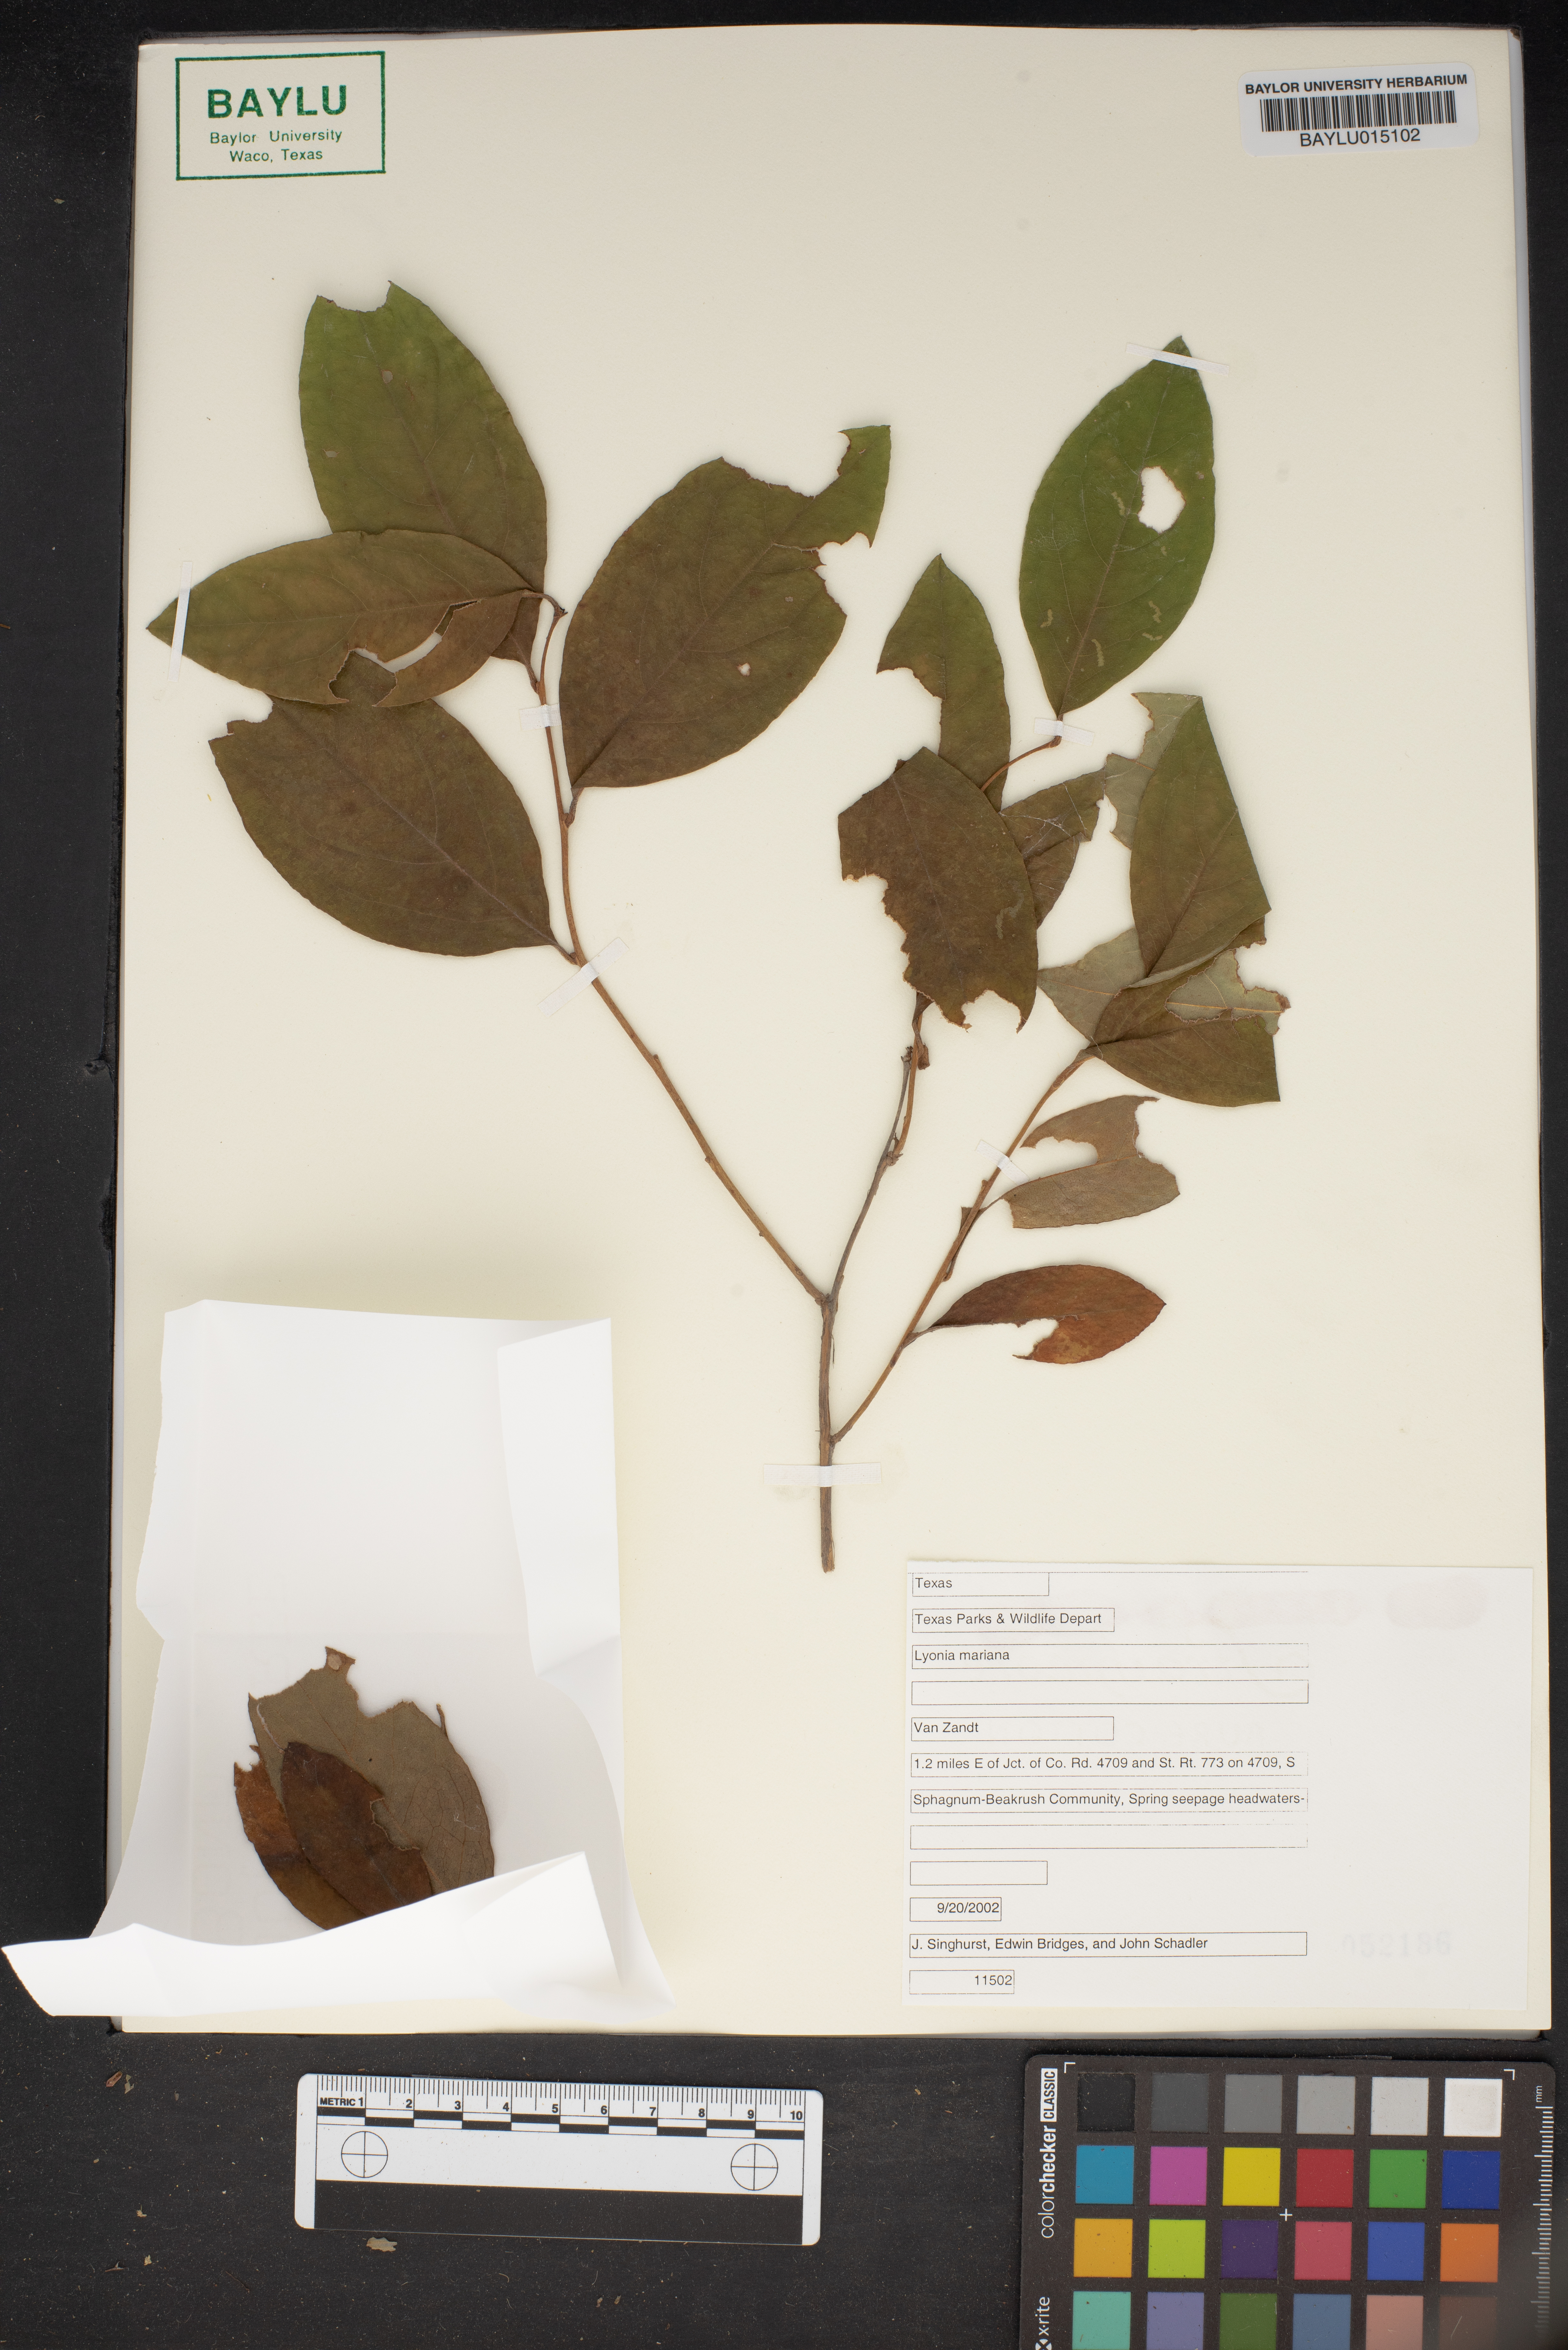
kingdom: Plantae
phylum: Tracheophyta
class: Magnoliopsida
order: Ericales
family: Ericaceae
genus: Lyonia
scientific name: Lyonia mariana
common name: Staggerbush
